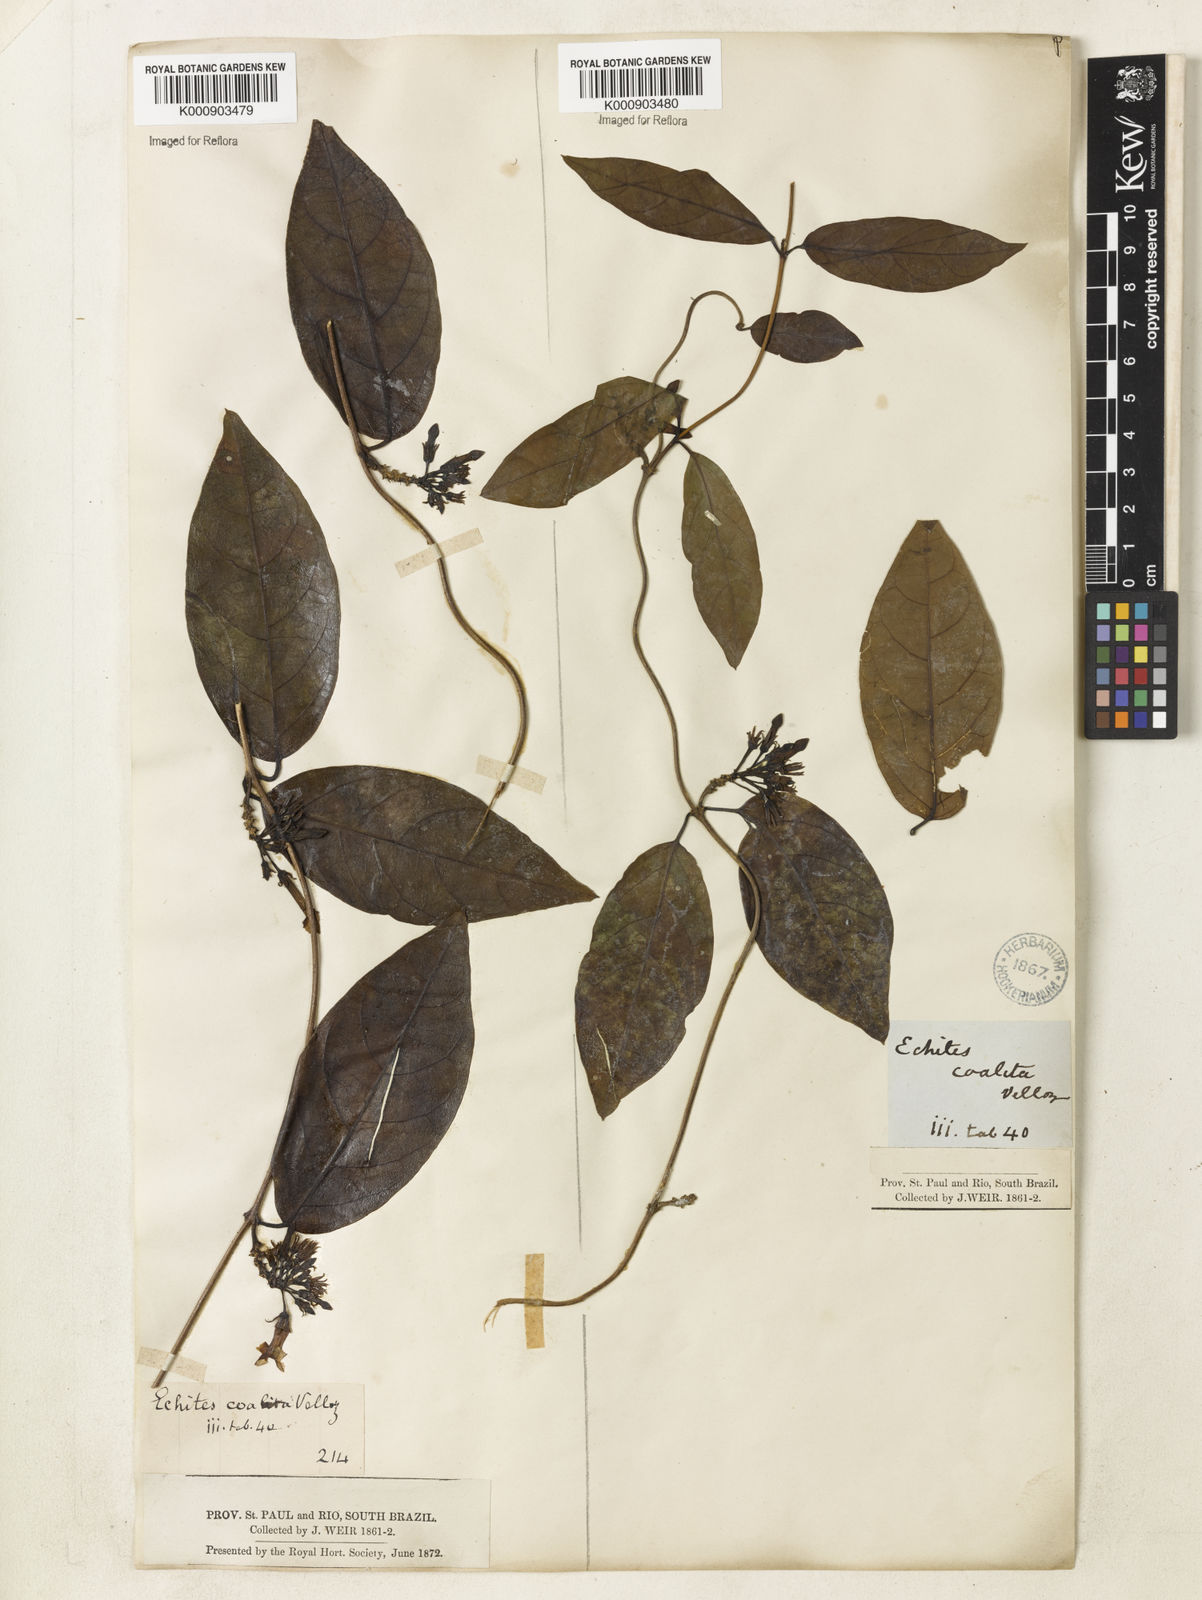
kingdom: Plantae
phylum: Tracheophyta
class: Magnoliopsida
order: Gentianales
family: Apocynaceae
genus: Prestonia
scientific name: Prestonia coalita
